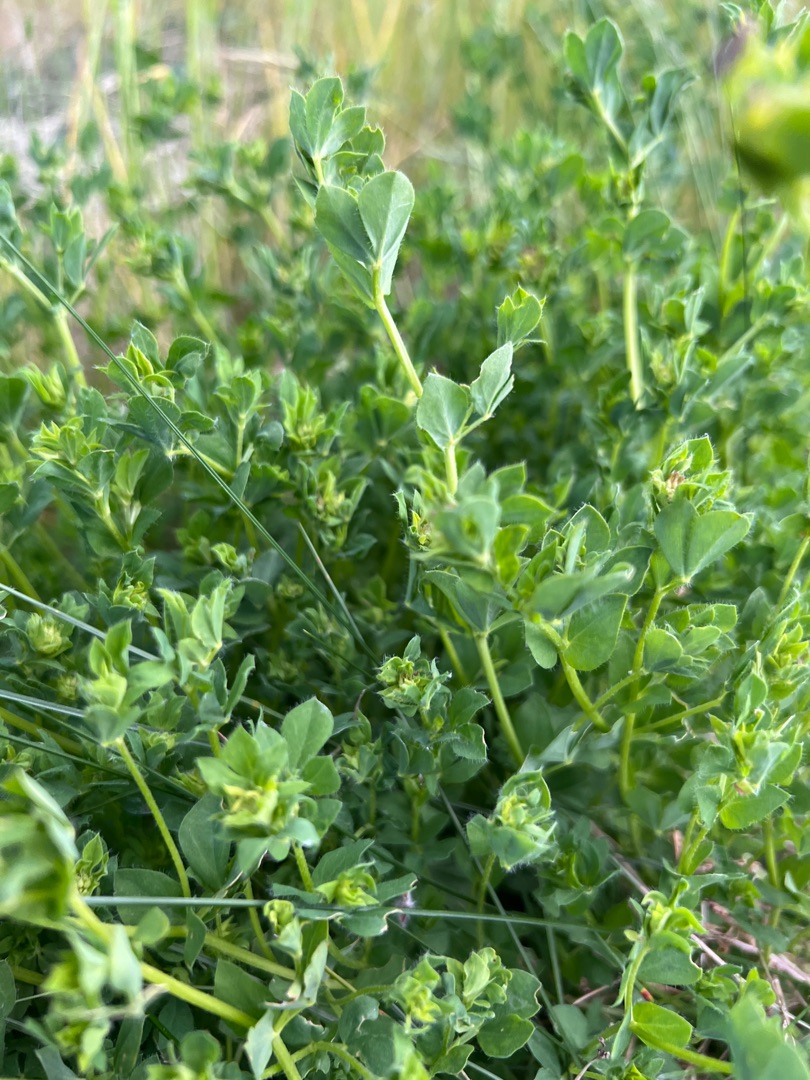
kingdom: Plantae
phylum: Tracheophyta
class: Magnoliopsida
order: Fabales
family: Fabaceae
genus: Lotus
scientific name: Lotus corniculatus
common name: Almindelig kællingetand
